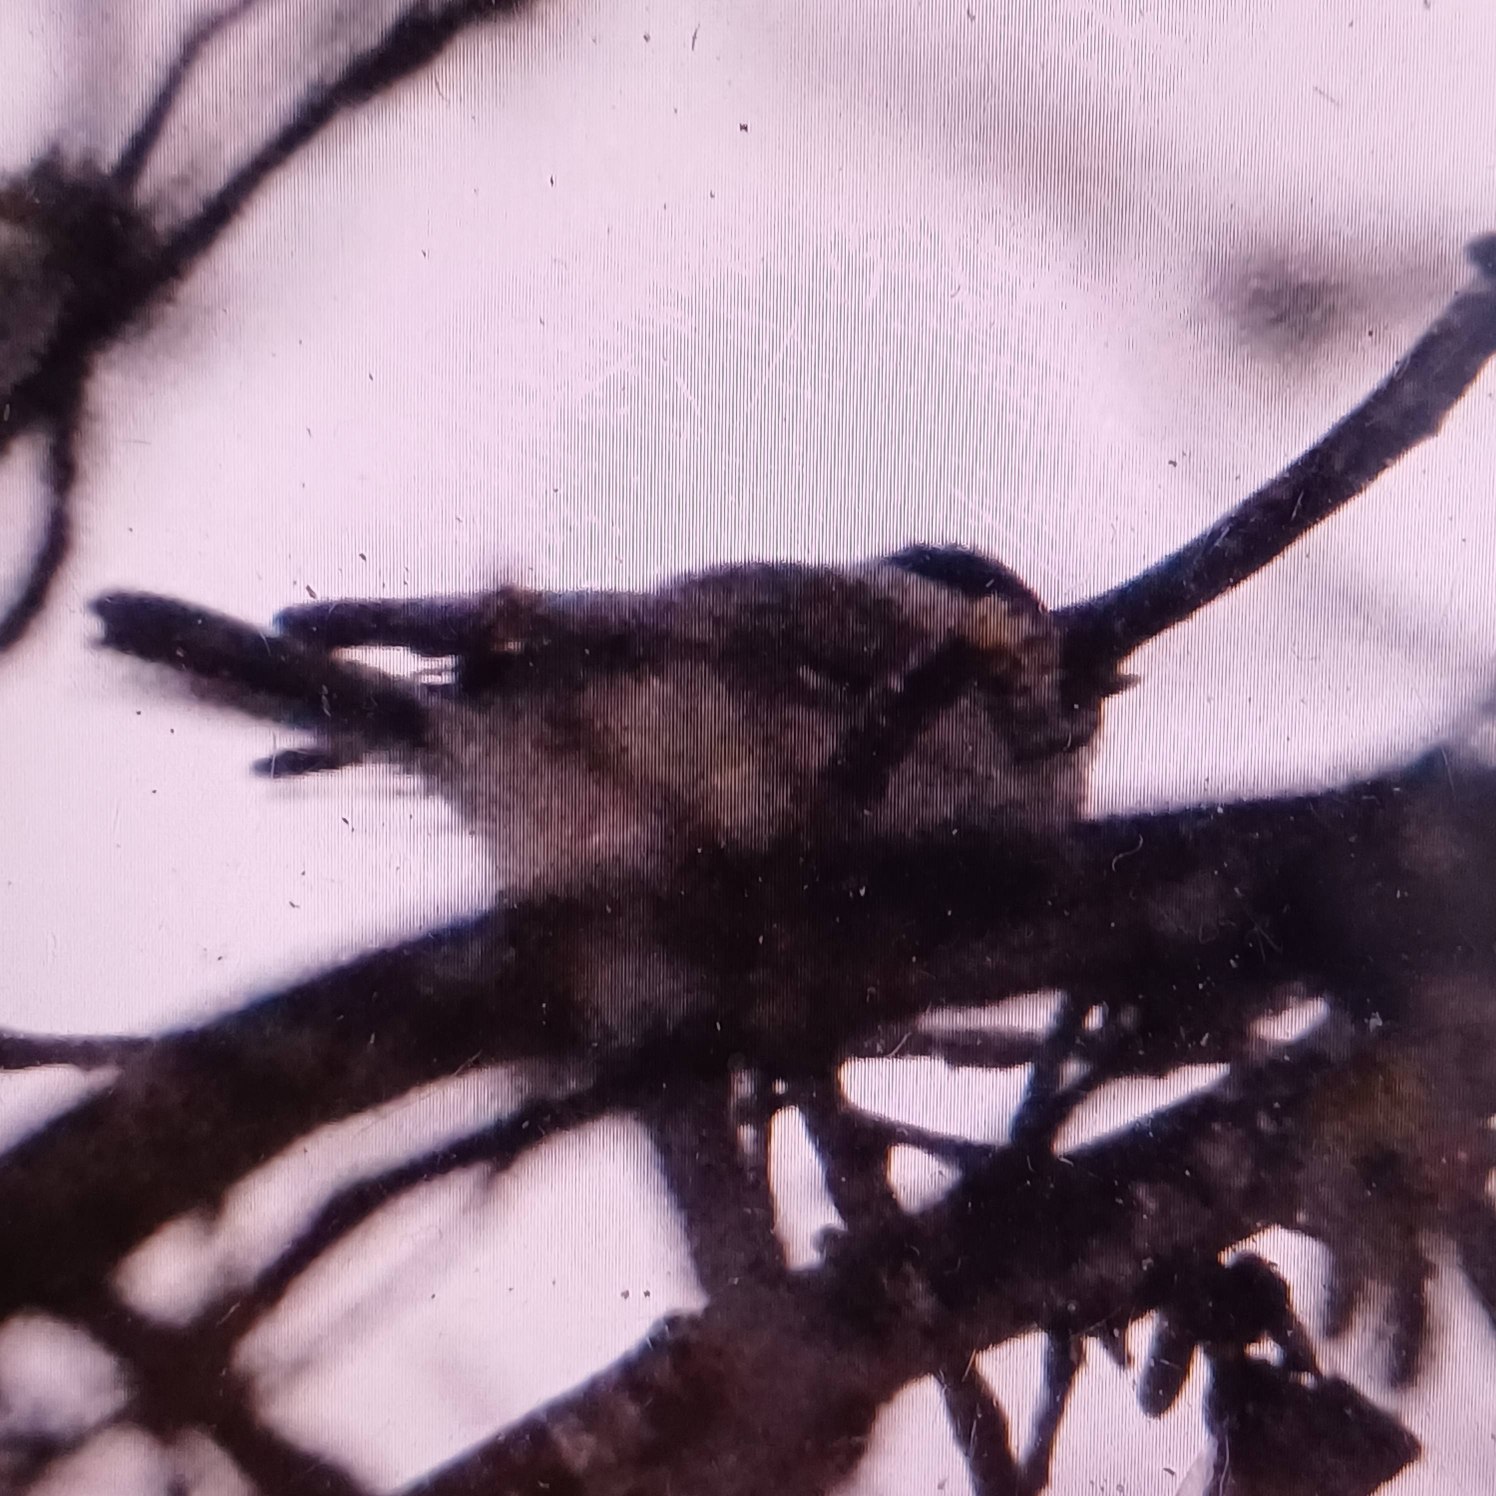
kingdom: Animalia
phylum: Chordata
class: Aves
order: Passeriformes
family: Paridae
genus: Poecile
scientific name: Poecile palustris
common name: Sumpmejse
